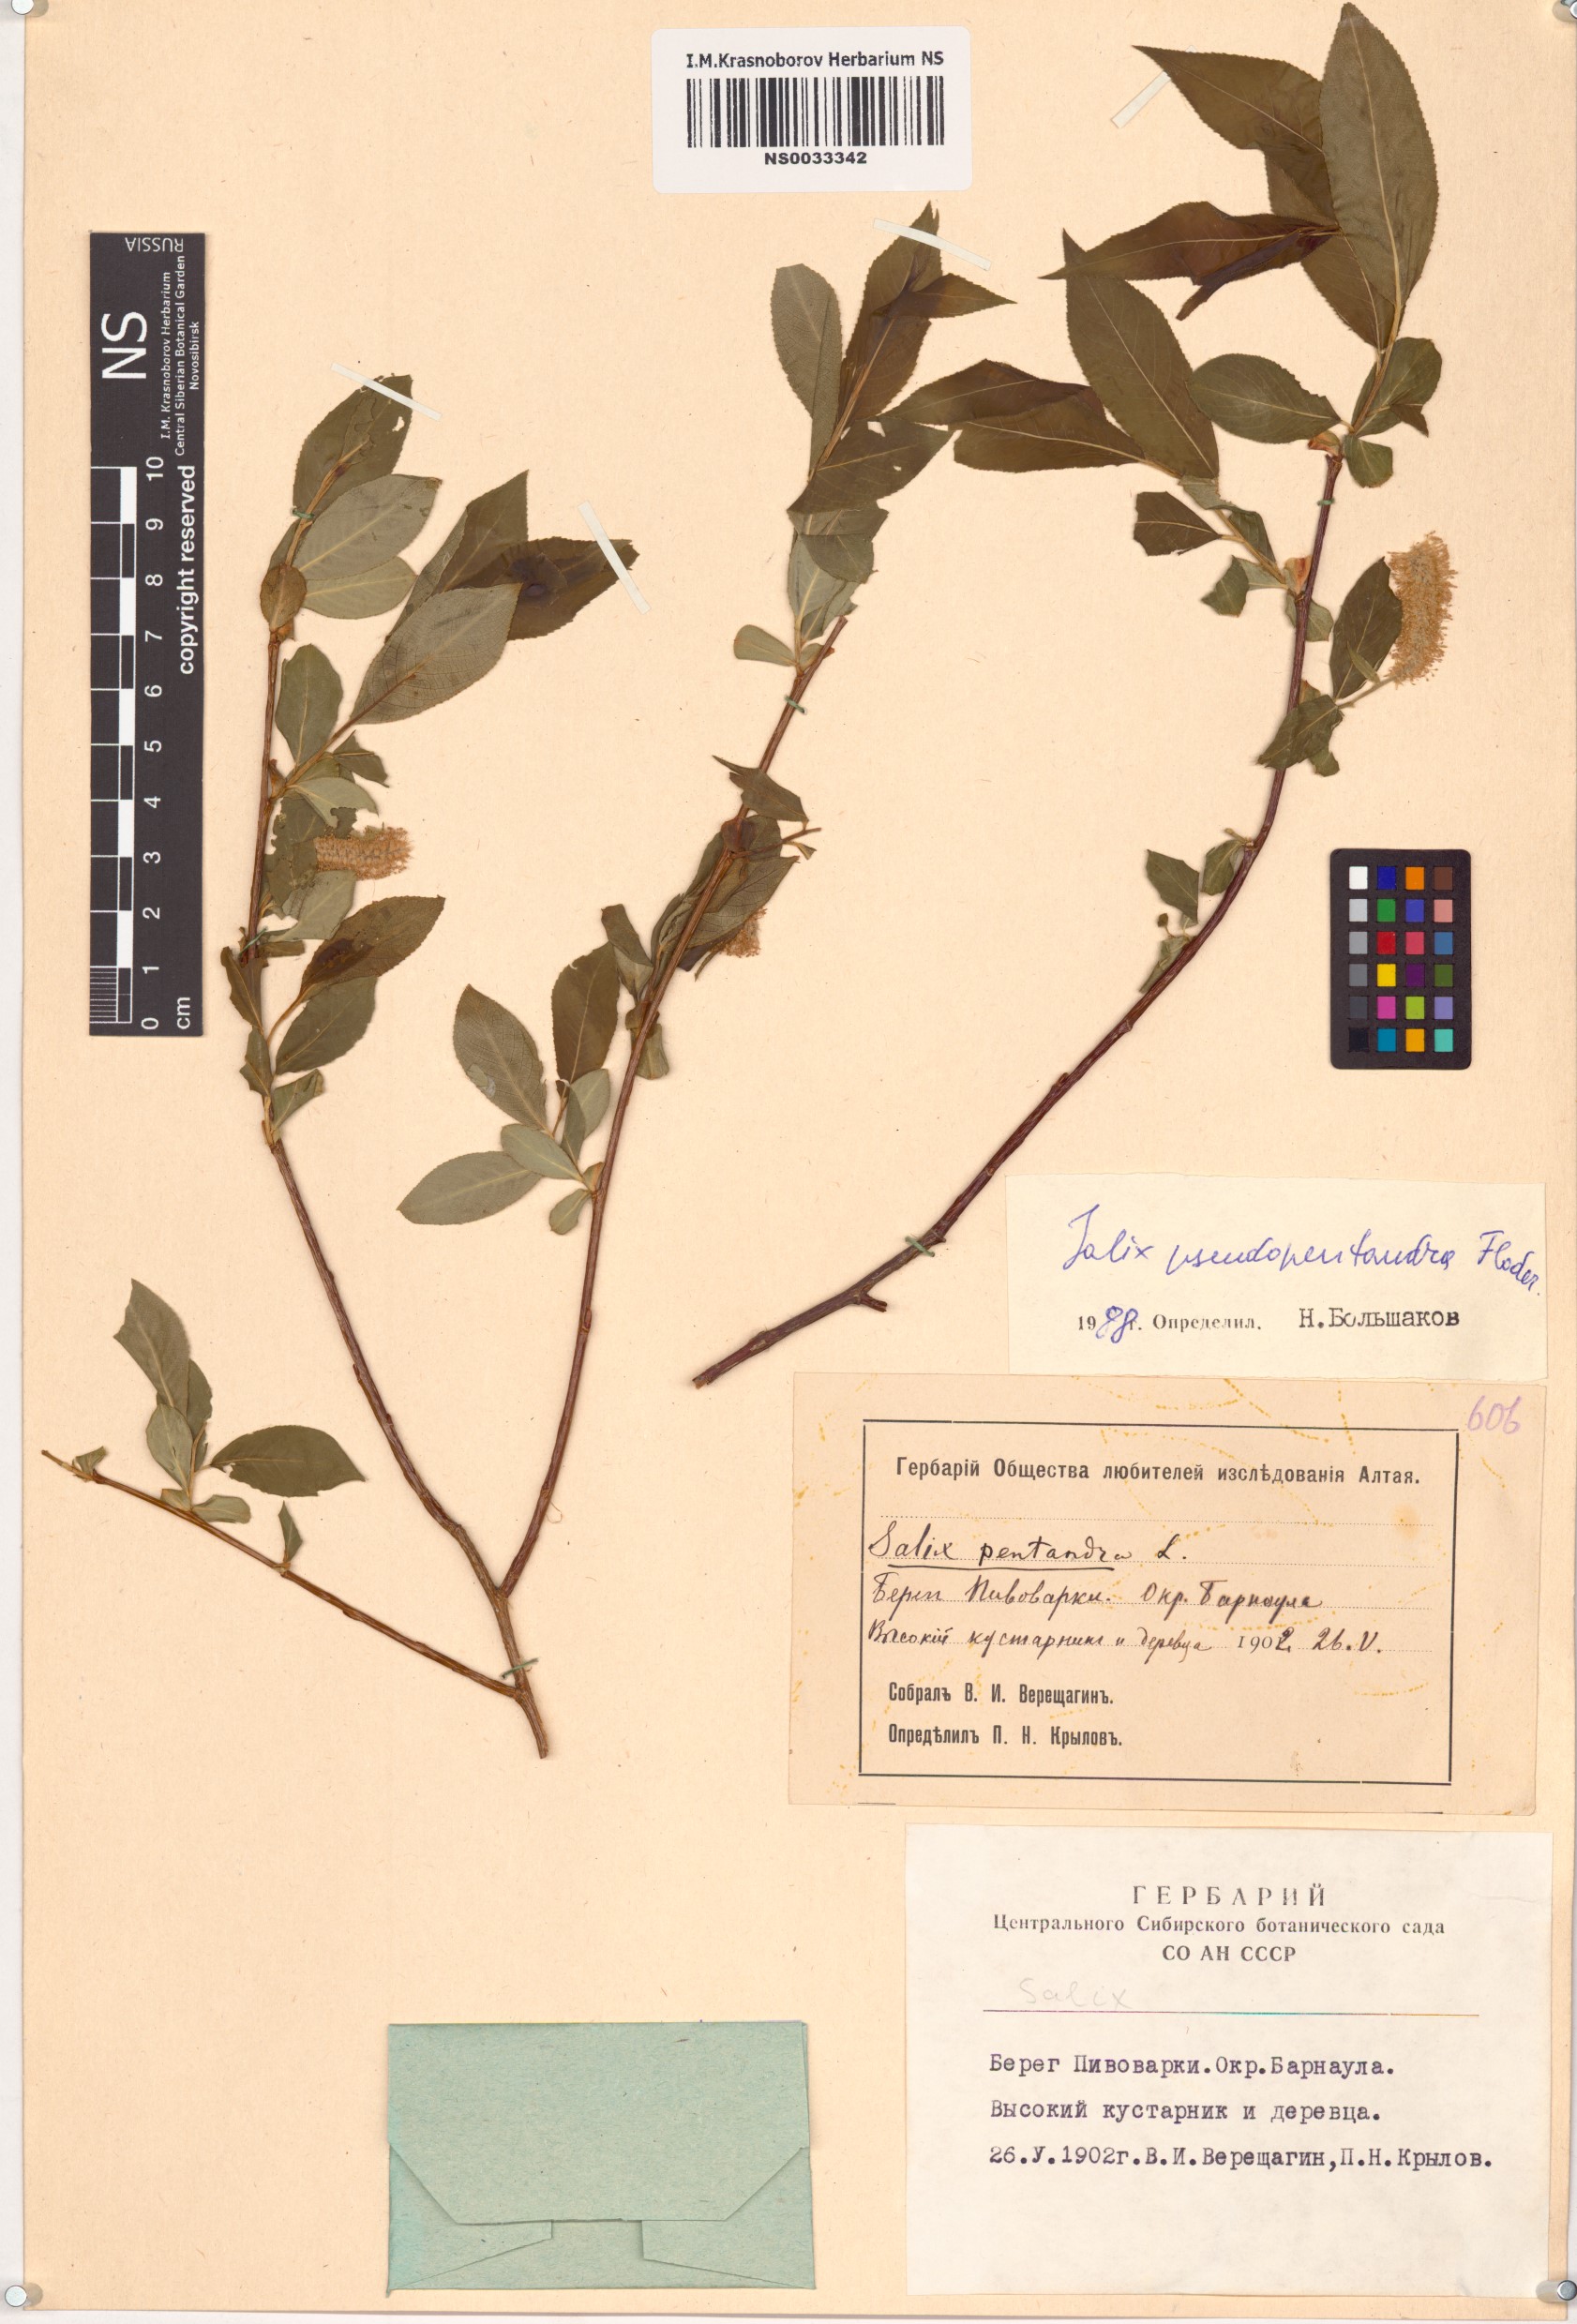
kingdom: Plantae
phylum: Tracheophyta
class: Magnoliopsida
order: Malpighiales
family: Salicaceae
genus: Salix
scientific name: Salix pseudopentandra
